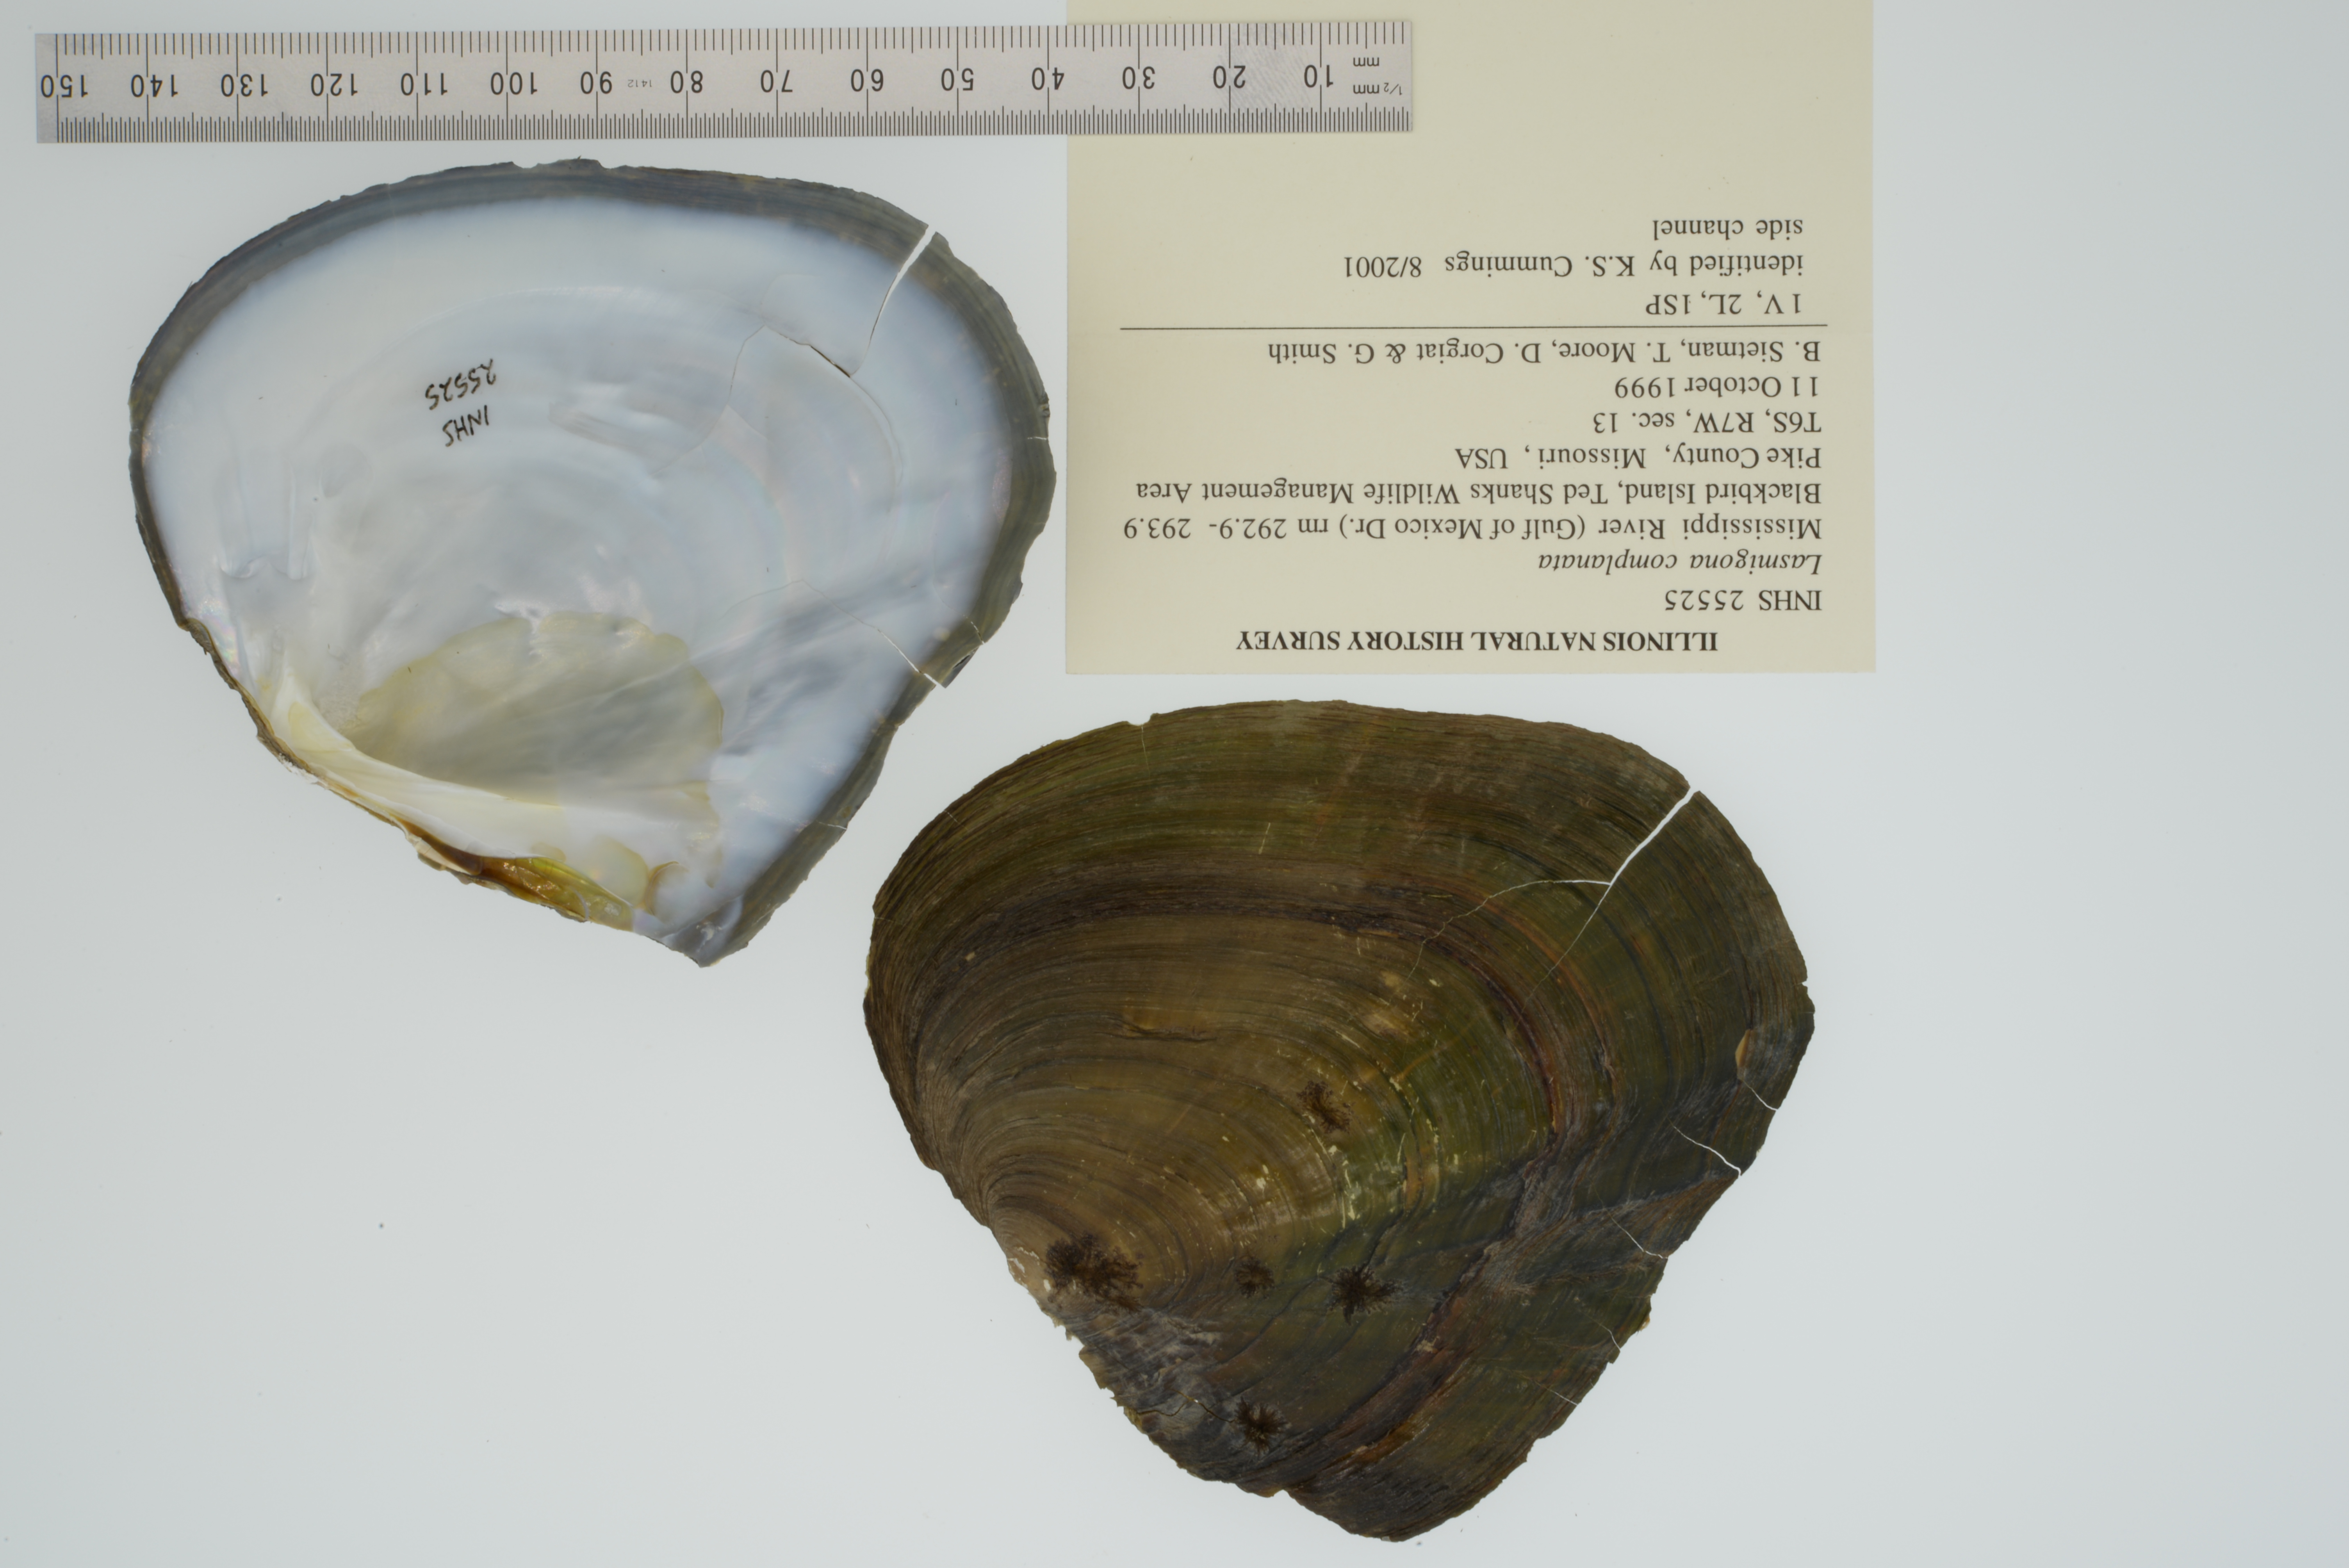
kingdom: Animalia
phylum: Mollusca
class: Bivalvia
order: Unionida
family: Unionidae
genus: Lasmigona
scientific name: Lasmigona complanata
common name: White heelsplitter
